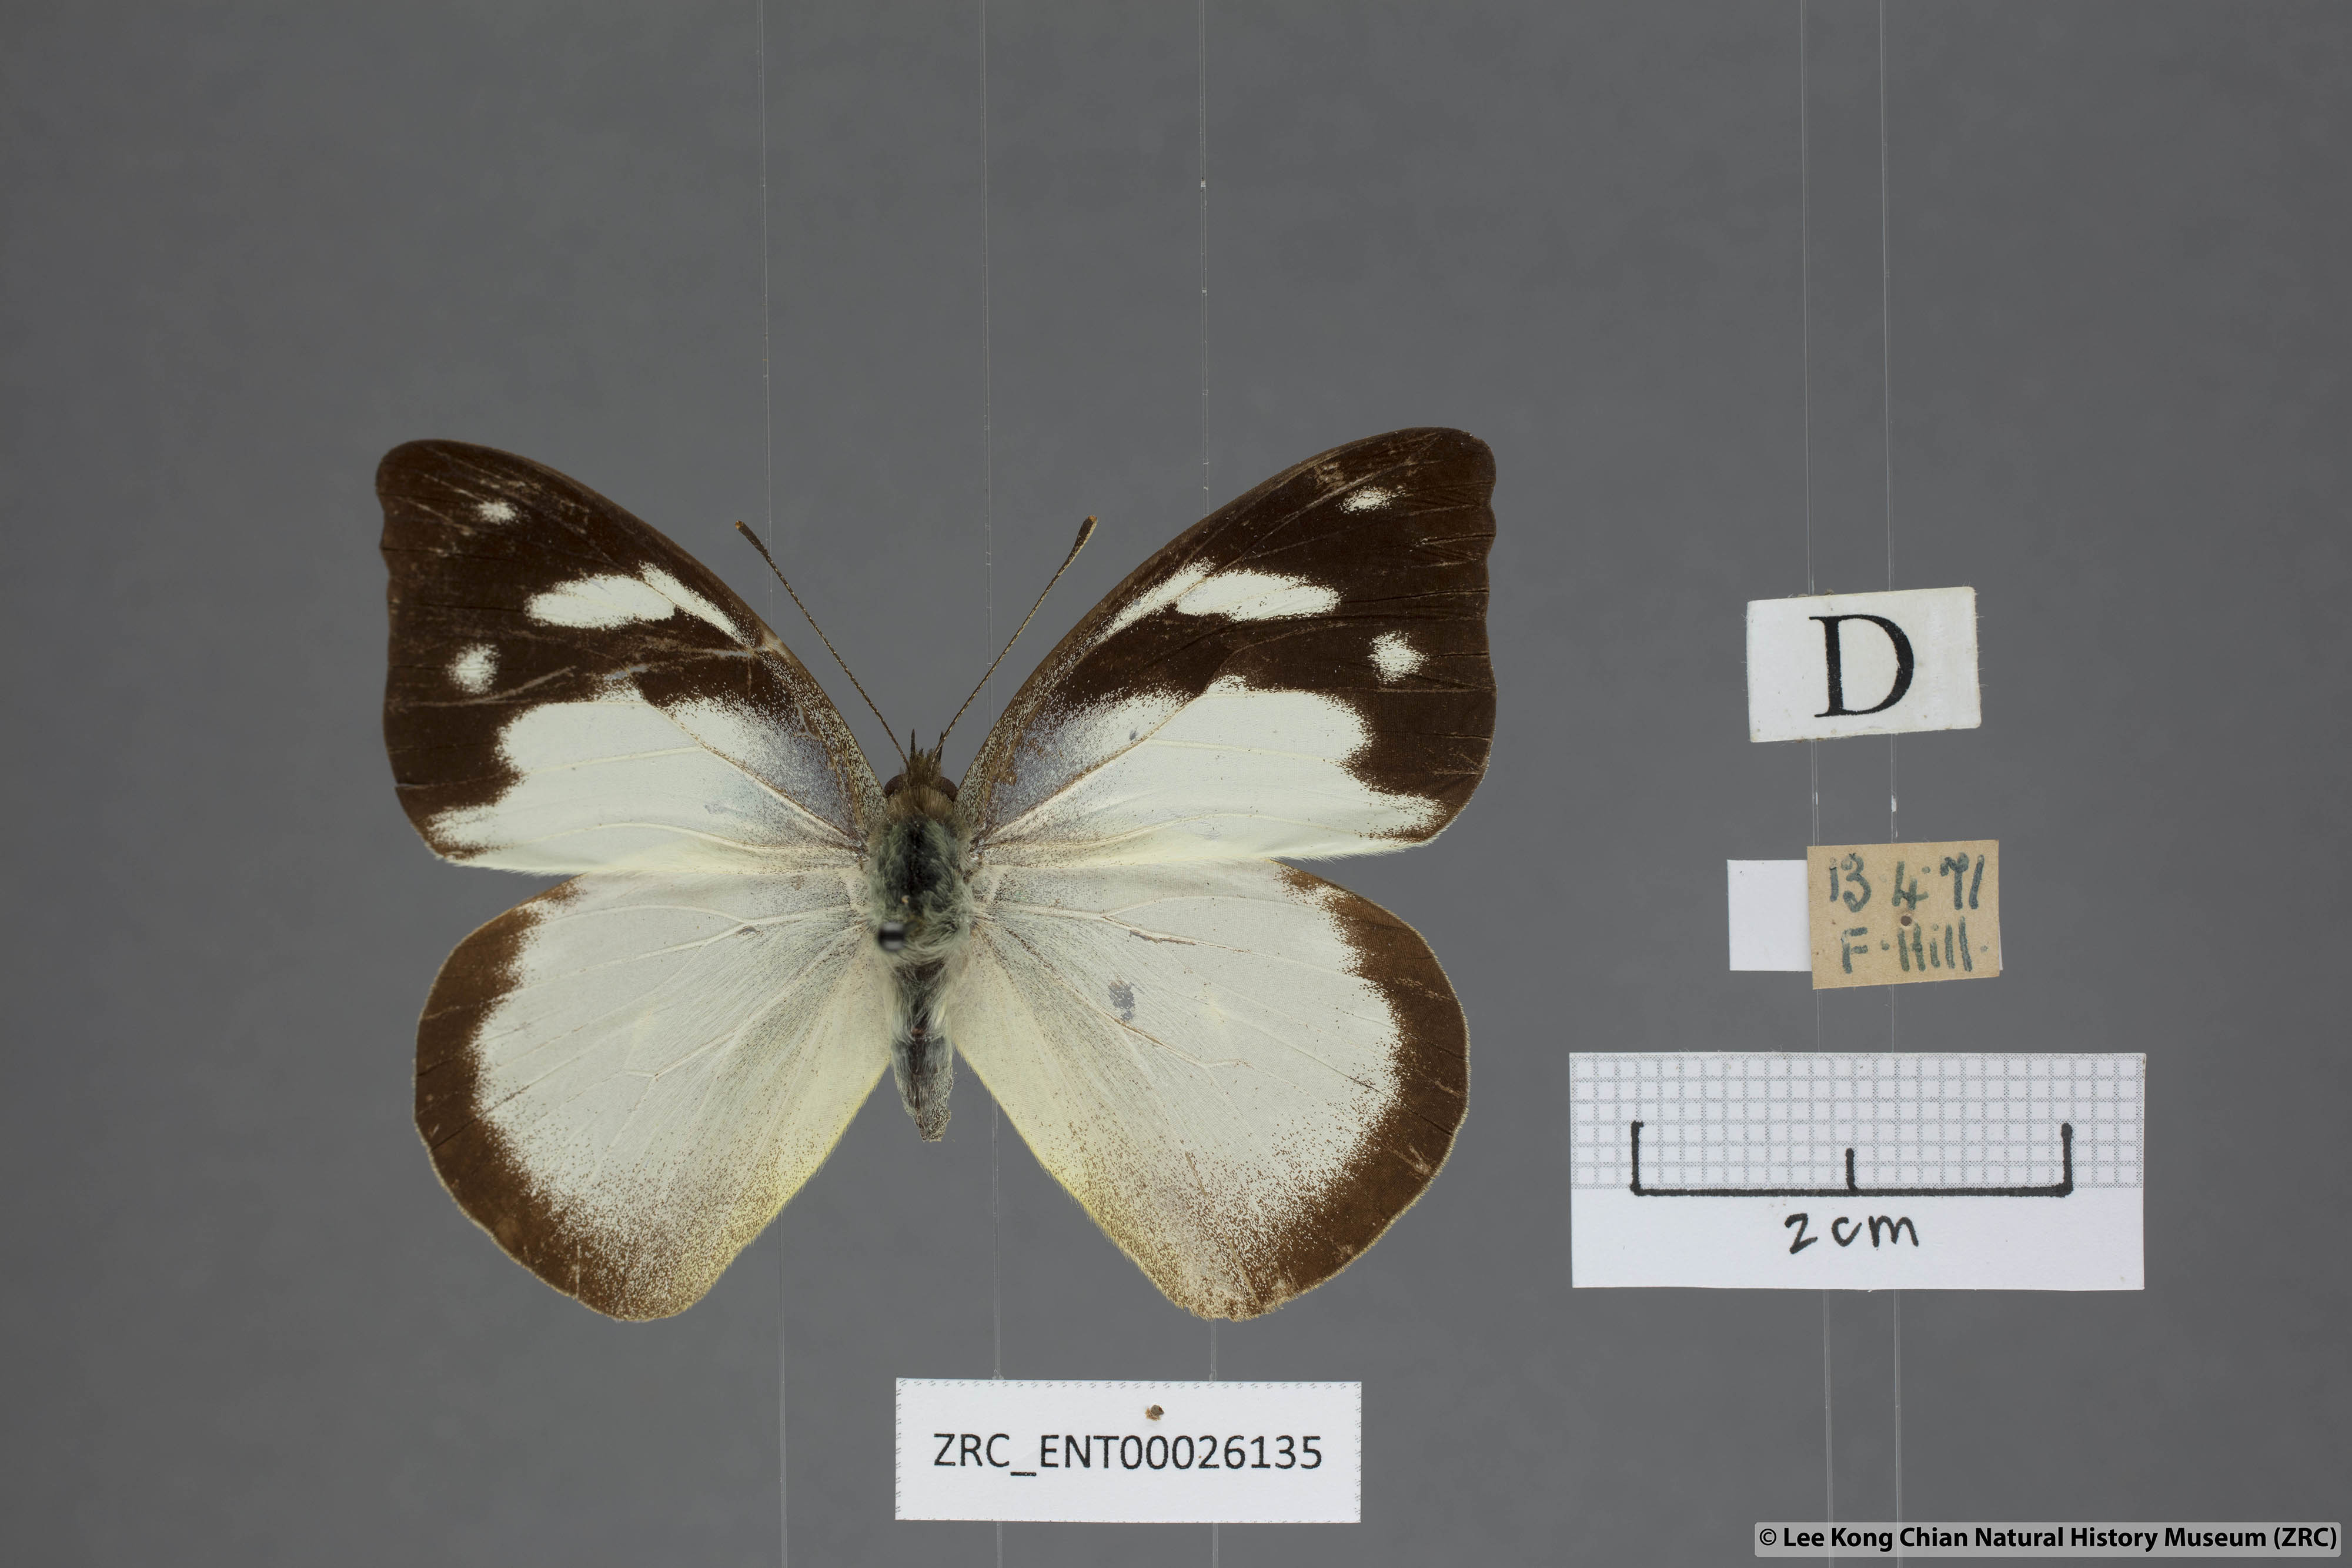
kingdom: Animalia
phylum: Arthropoda
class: Insecta
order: Lepidoptera
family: Pieridae
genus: Appias
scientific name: Appias pandione
